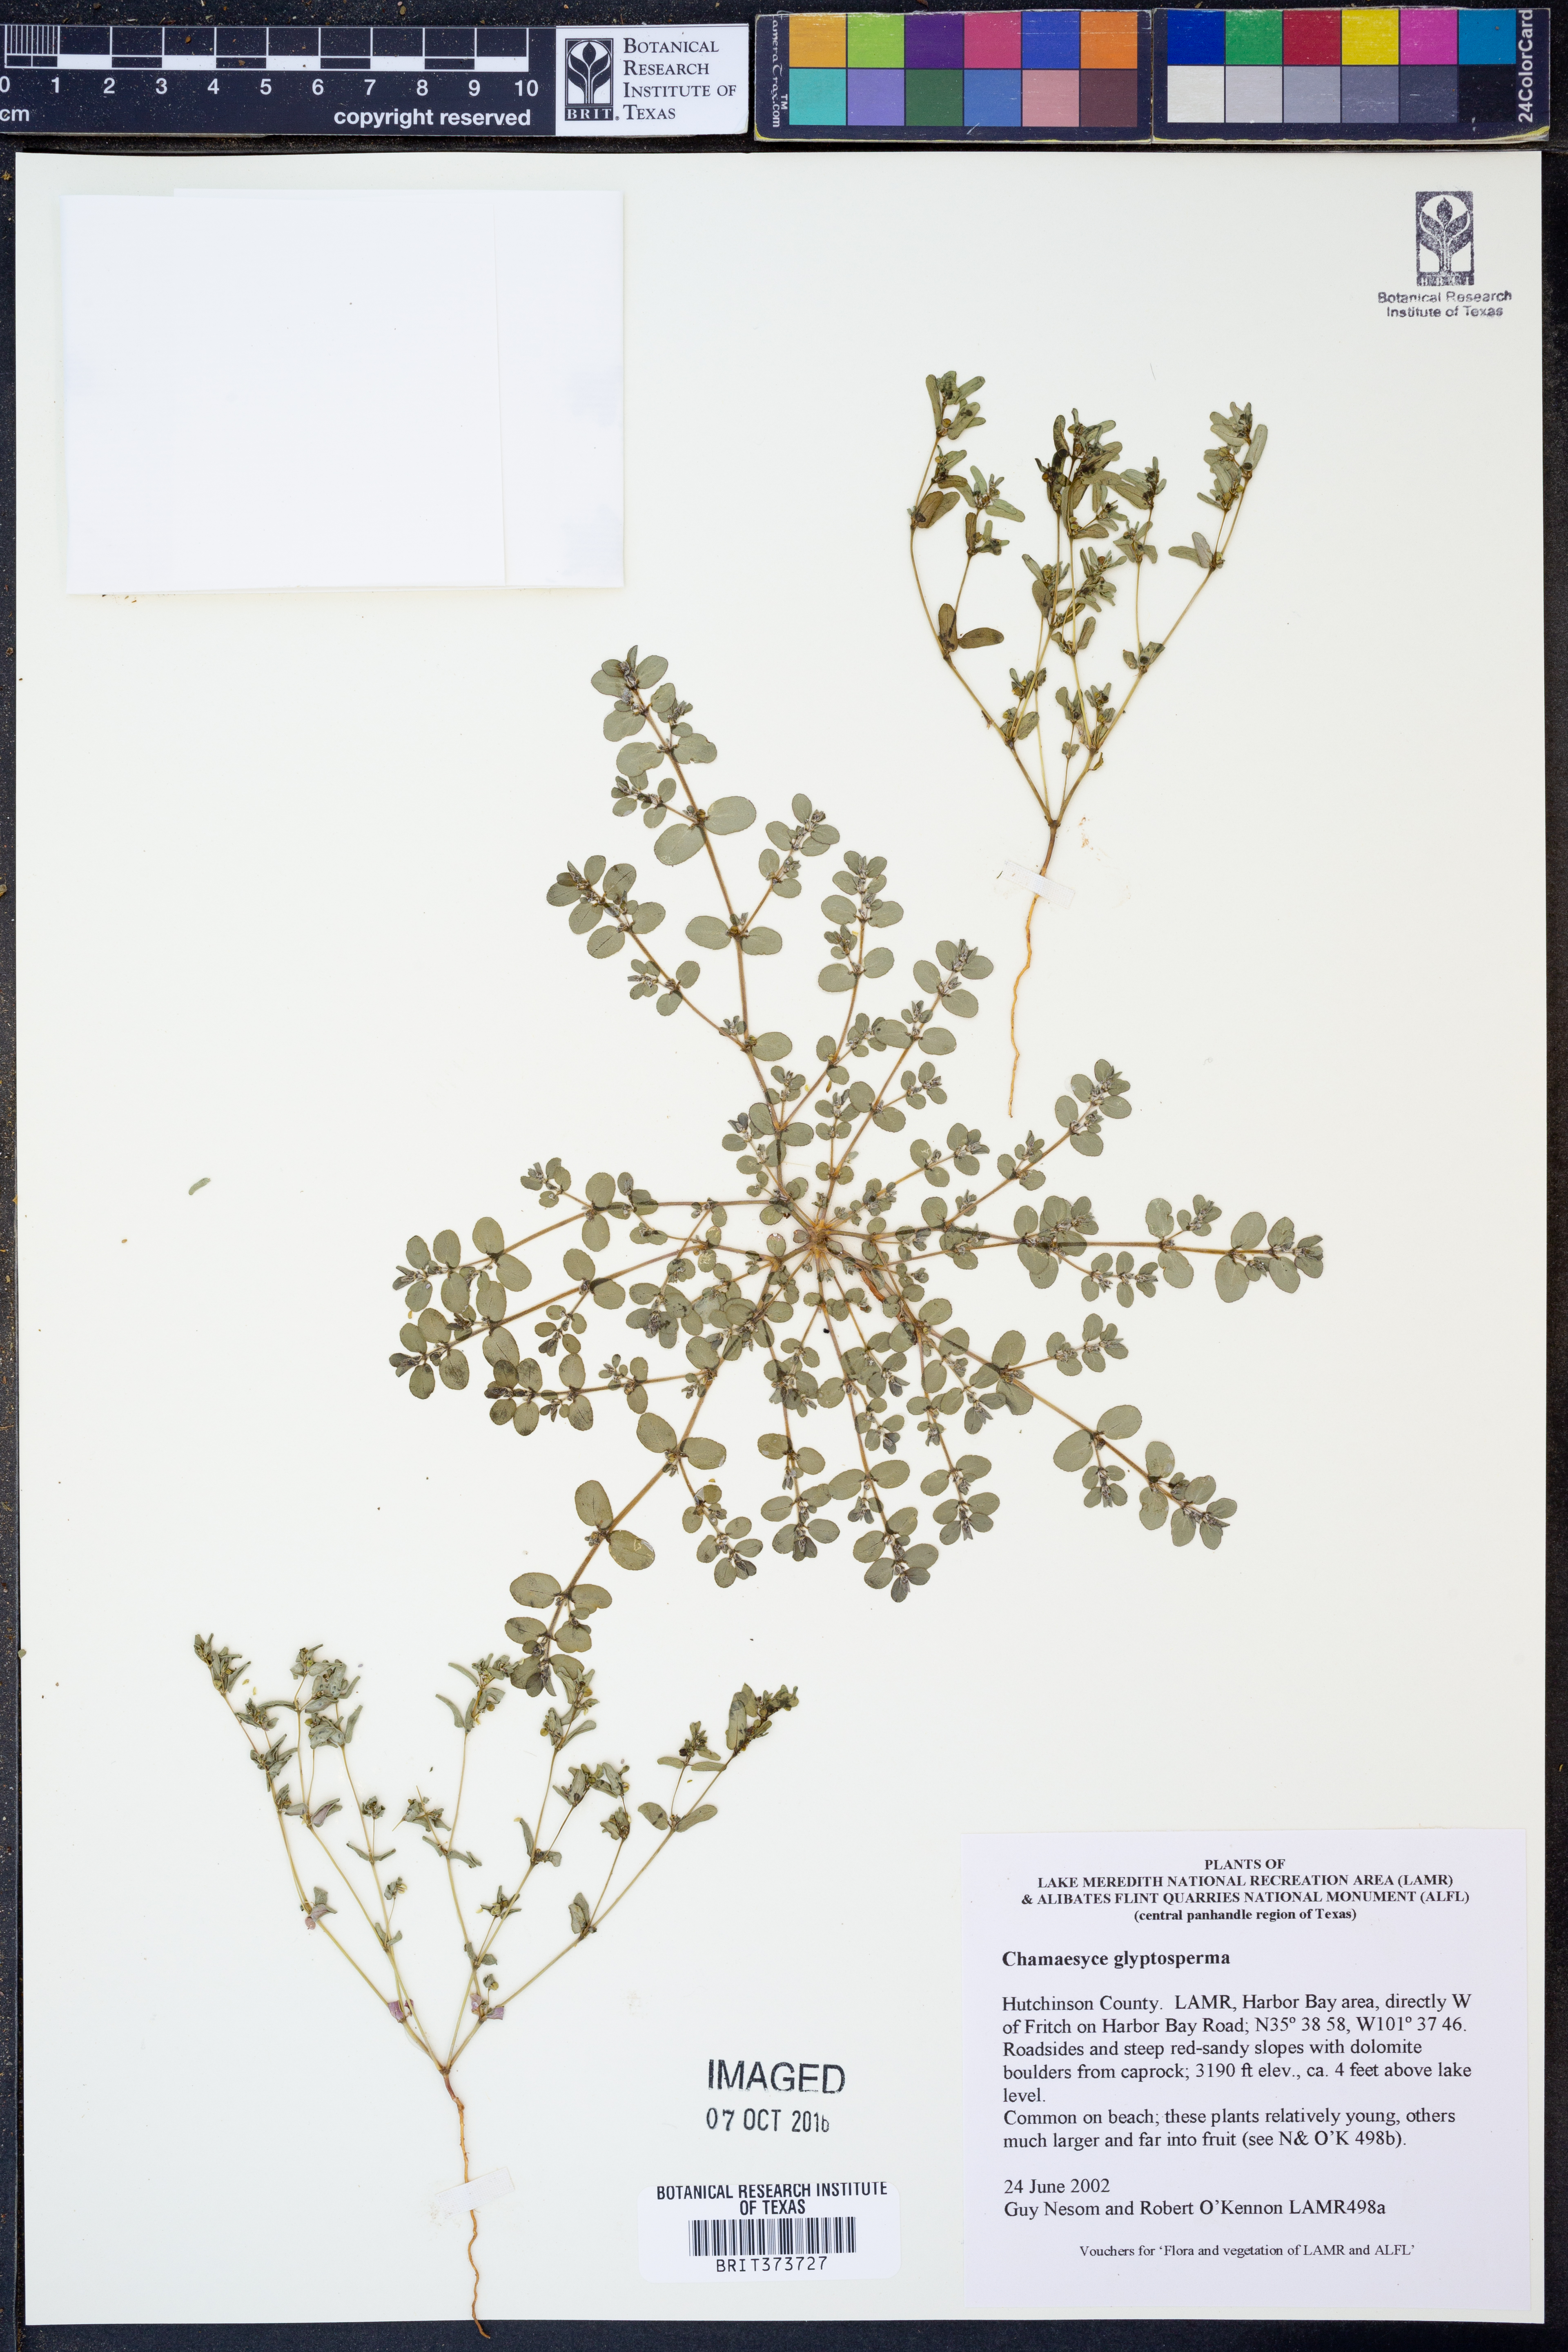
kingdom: Plantae
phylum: Tracheophyta
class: Magnoliopsida
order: Malpighiales
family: Euphorbiaceae
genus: Euphorbia
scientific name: Euphorbia glyptosperma
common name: Corrugate-seeded spurge
